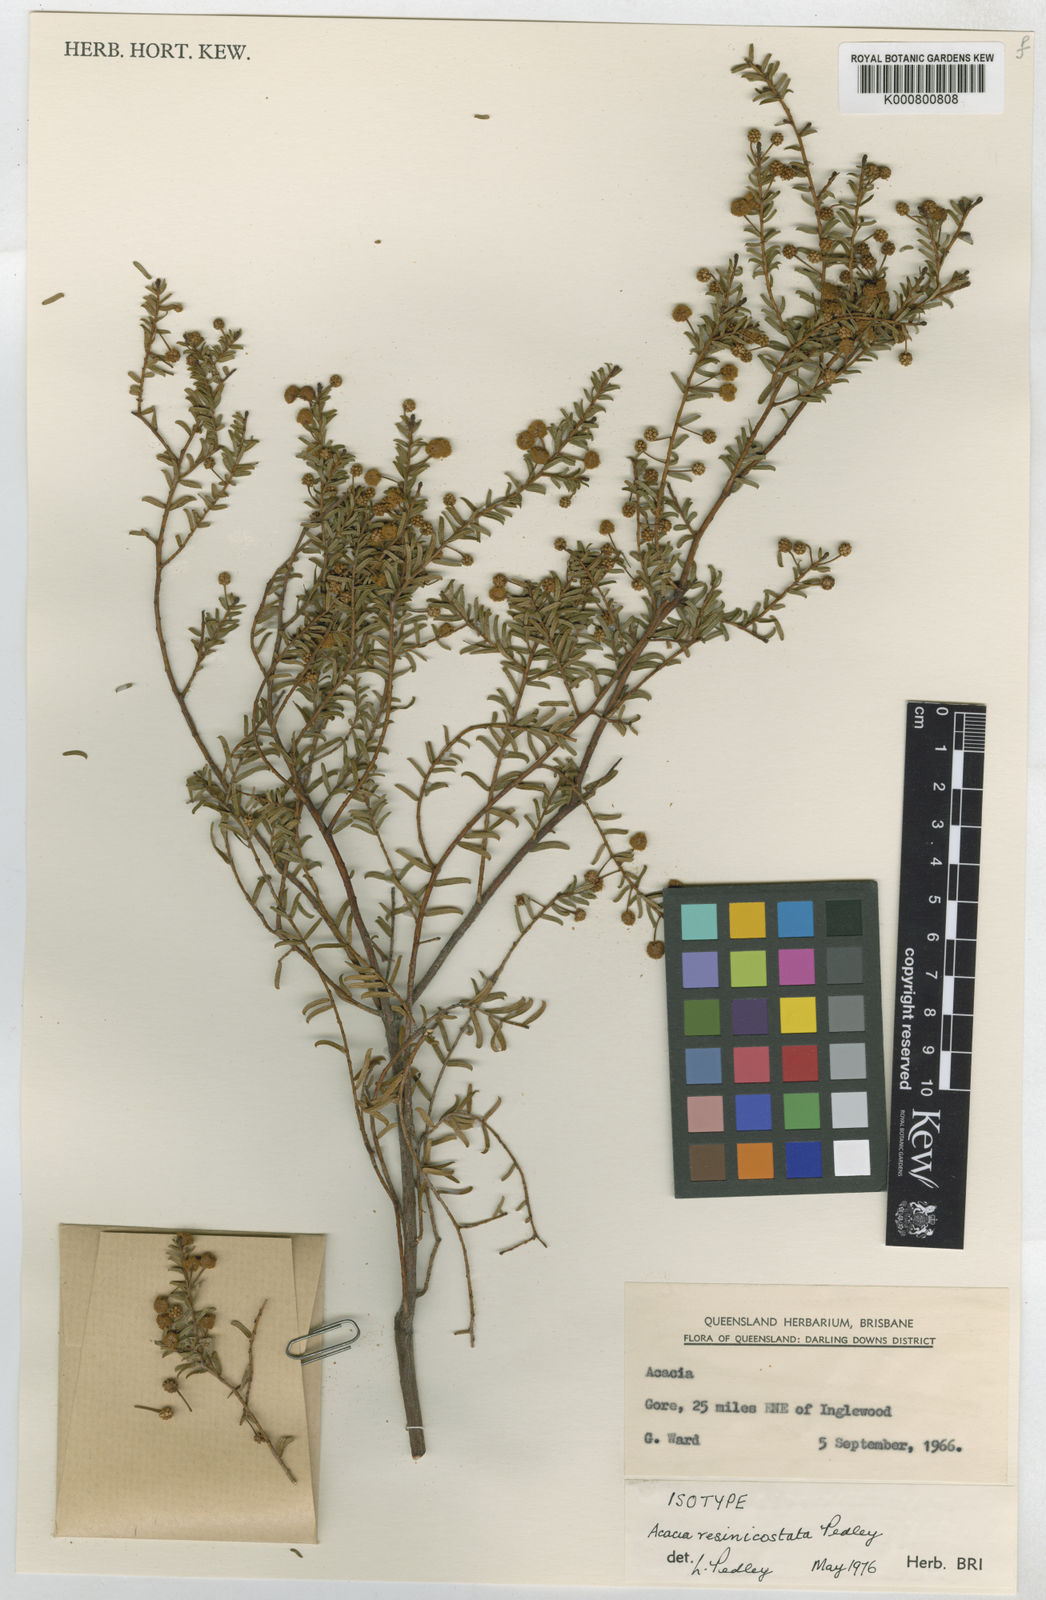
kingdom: Plantae
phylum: Tracheophyta
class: Magnoliopsida
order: Fabales
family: Fabaceae
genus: Acacia
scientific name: Acacia resinocostata
